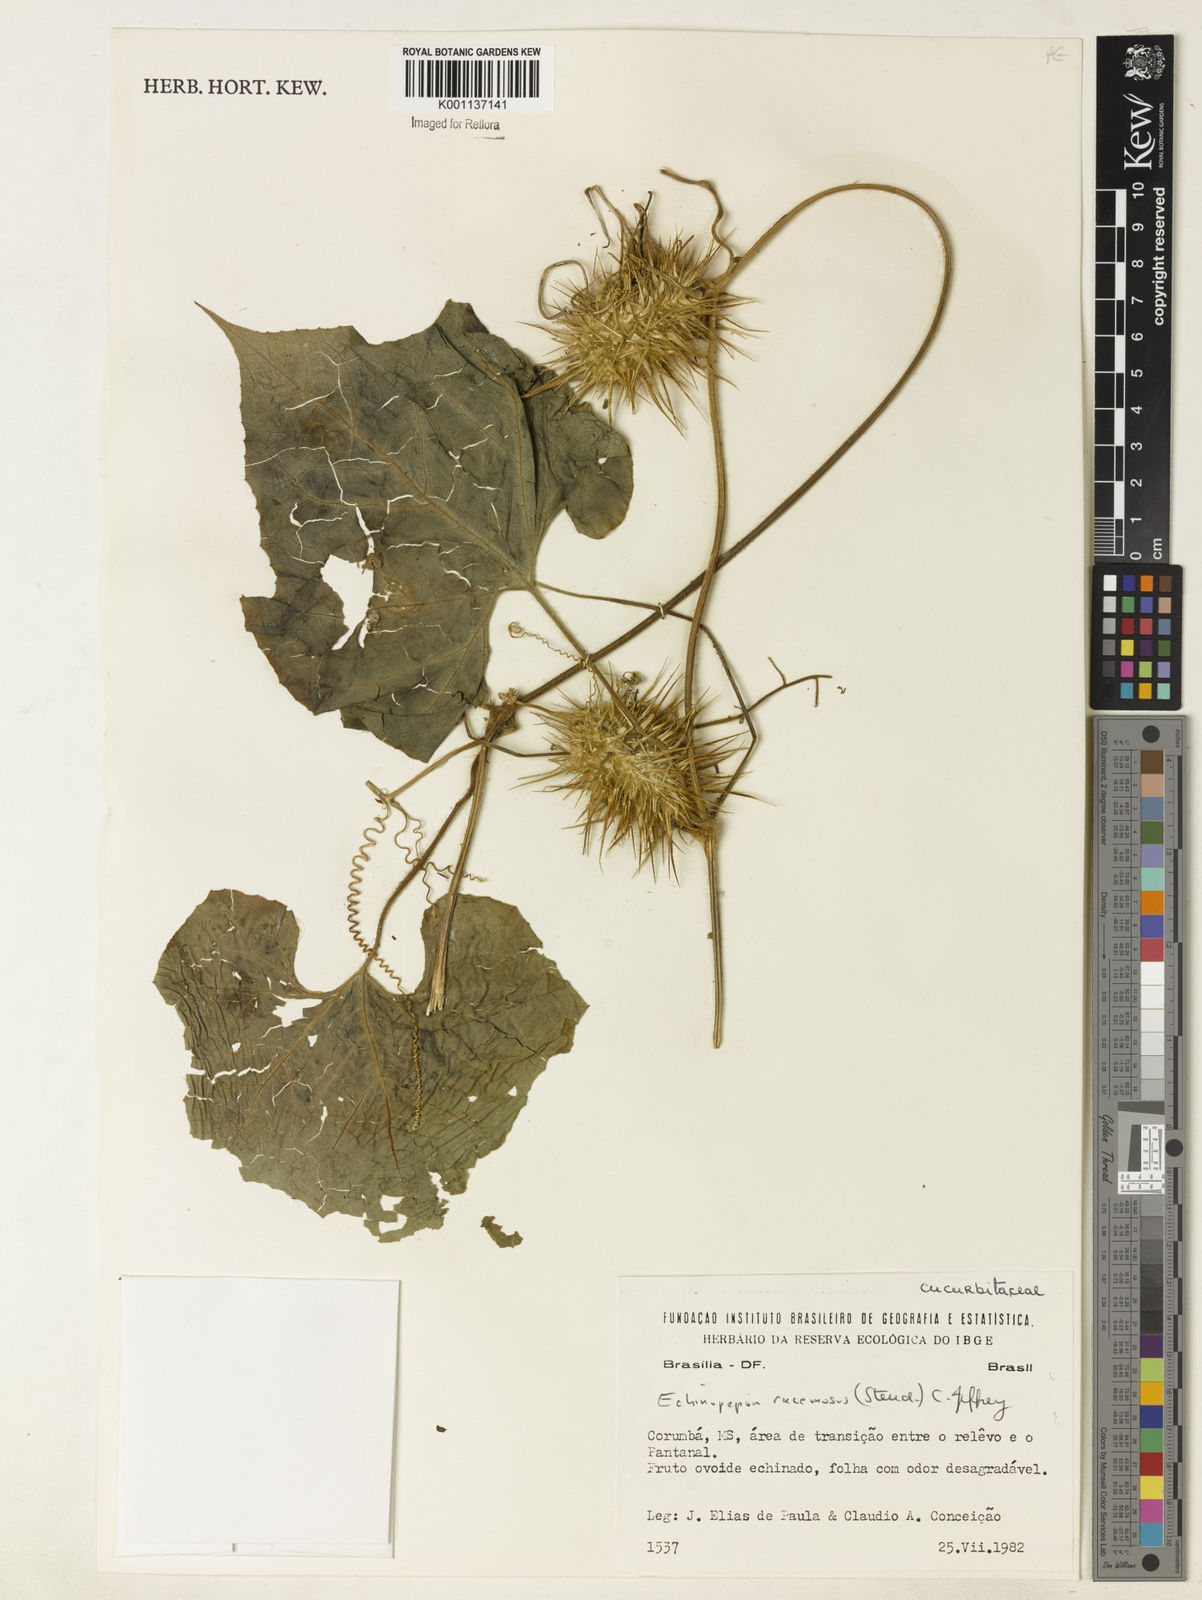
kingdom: Plantae
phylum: Tracheophyta
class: Magnoliopsida
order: Cucurbitales
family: Cucurbitaceae
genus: Echinopepon
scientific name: Echinopepon racemosus
